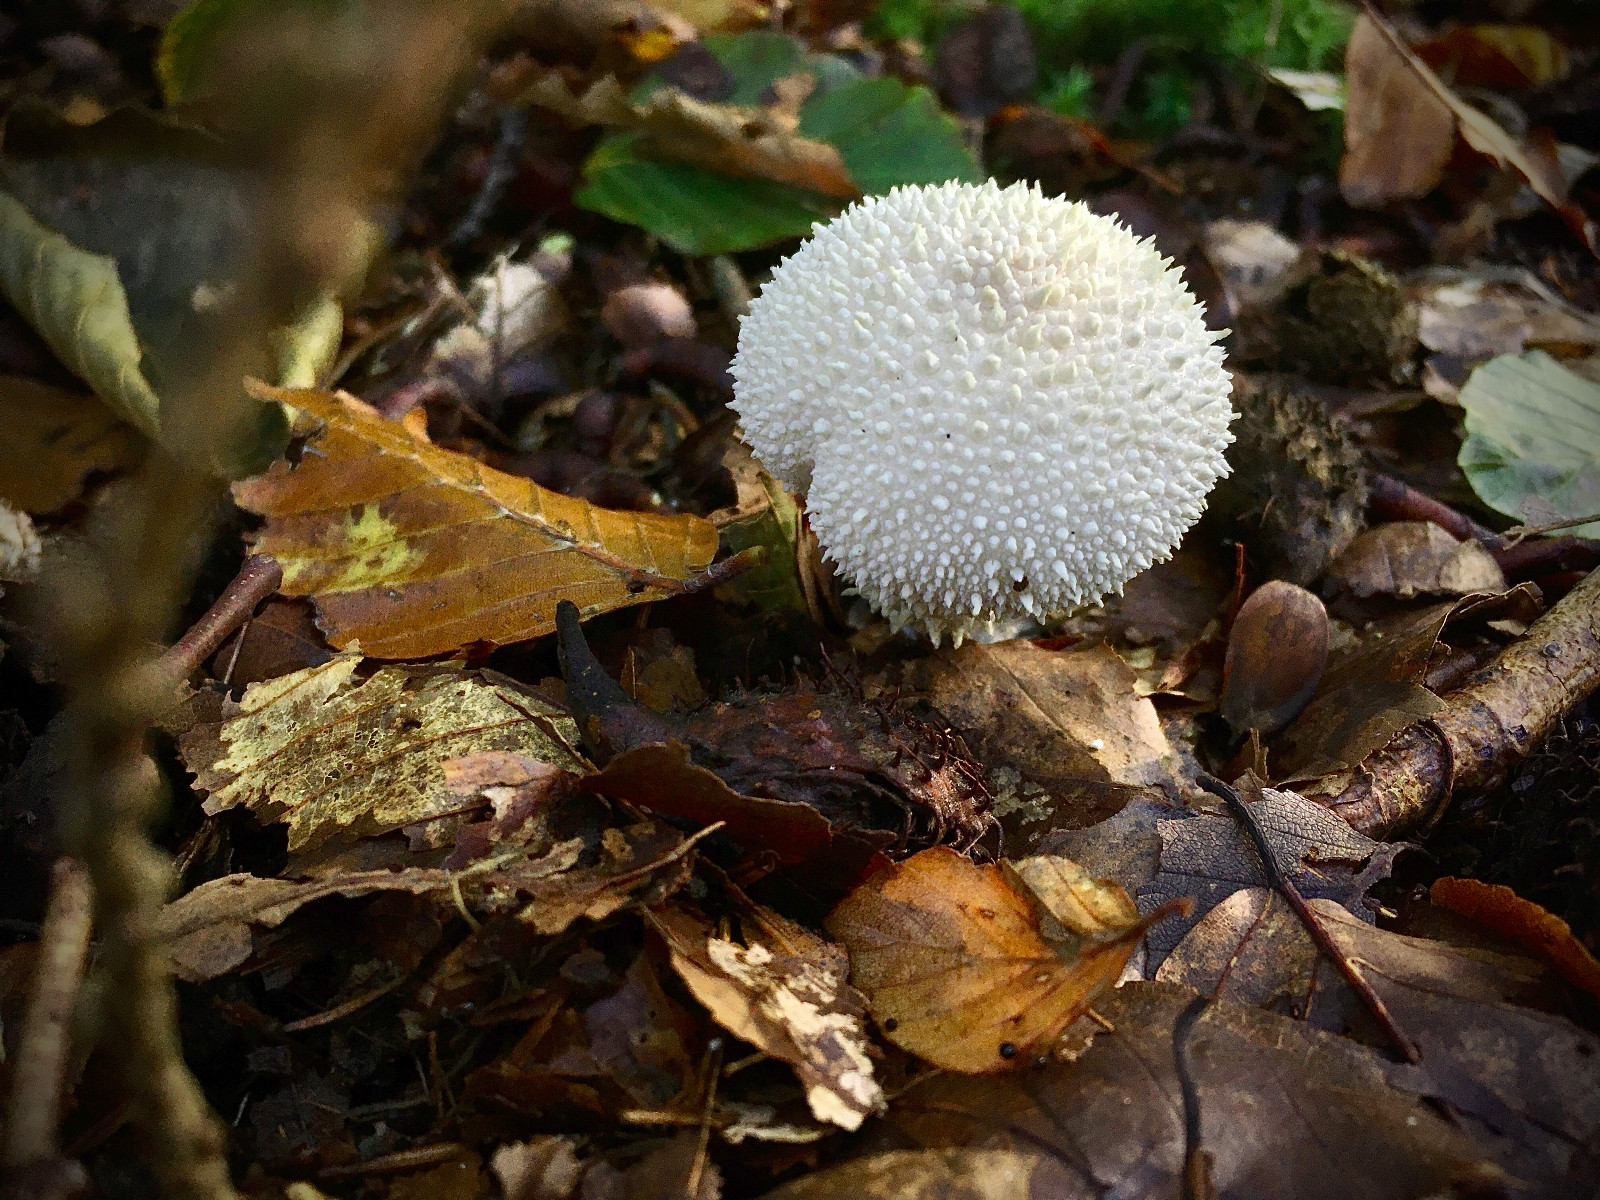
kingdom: Fungi
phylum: Basidiomycota
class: Agaricomycetes
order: Agaricales
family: Lycoperdaceae
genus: Lycoperdon
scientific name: Lycoperdon perlatum
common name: krystal-støvbold
